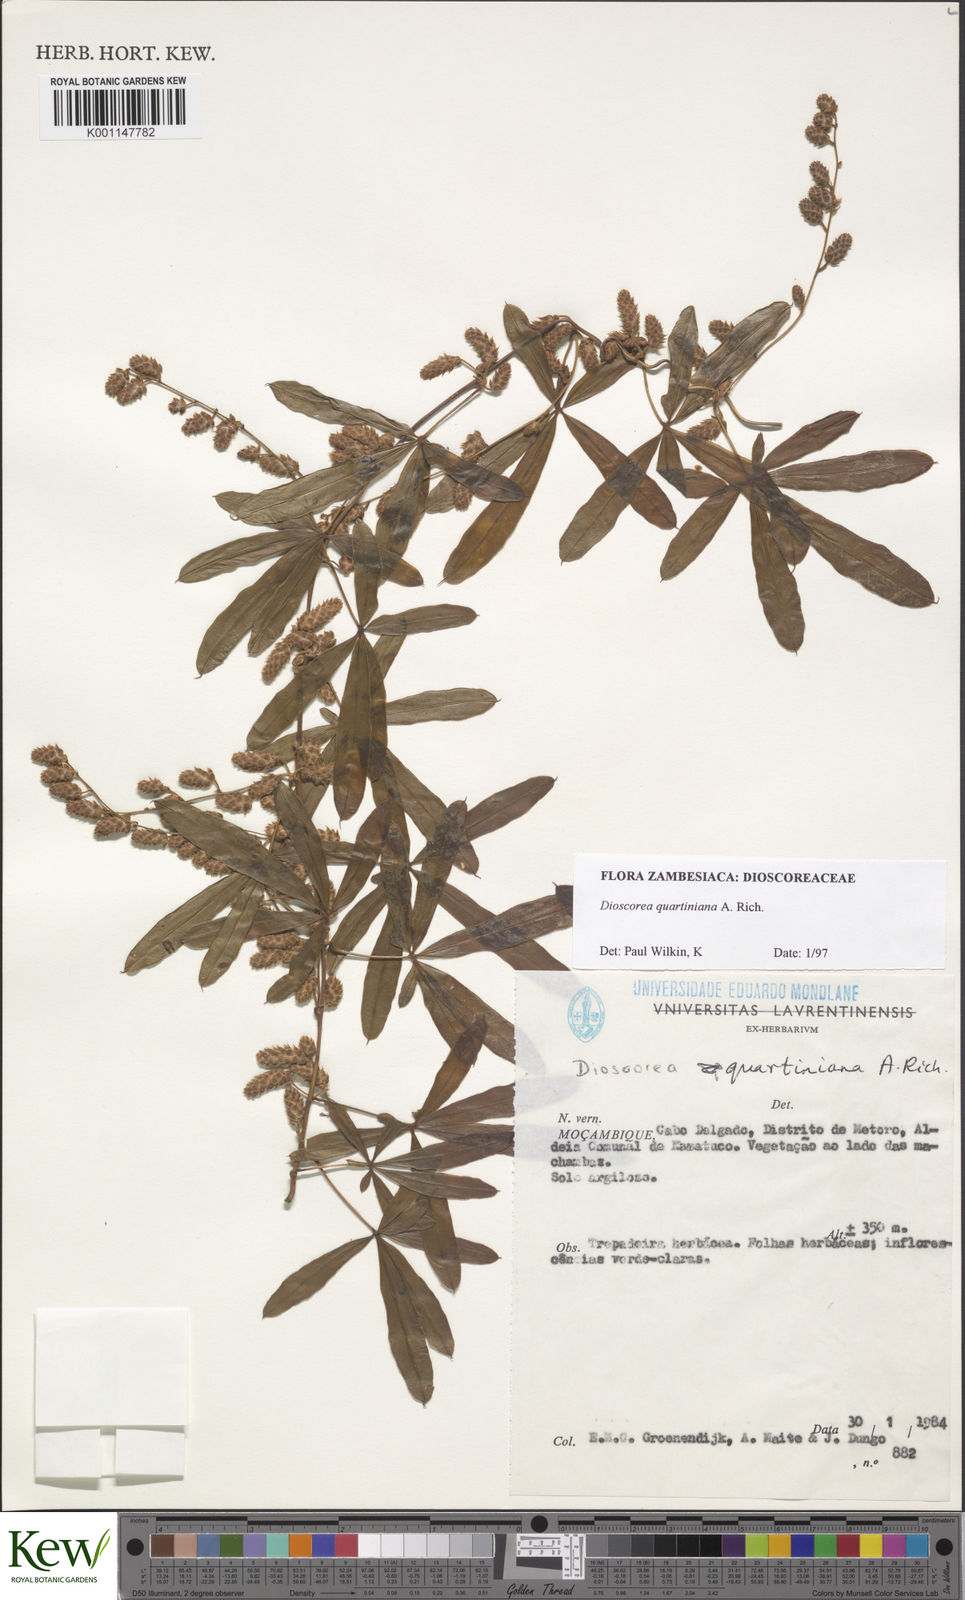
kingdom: Plantae
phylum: Tracheophyta
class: Liliopsida
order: Dioscoreales
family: Dioscoreaceae
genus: Dioscorea
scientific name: Dioscorea quartiniana
